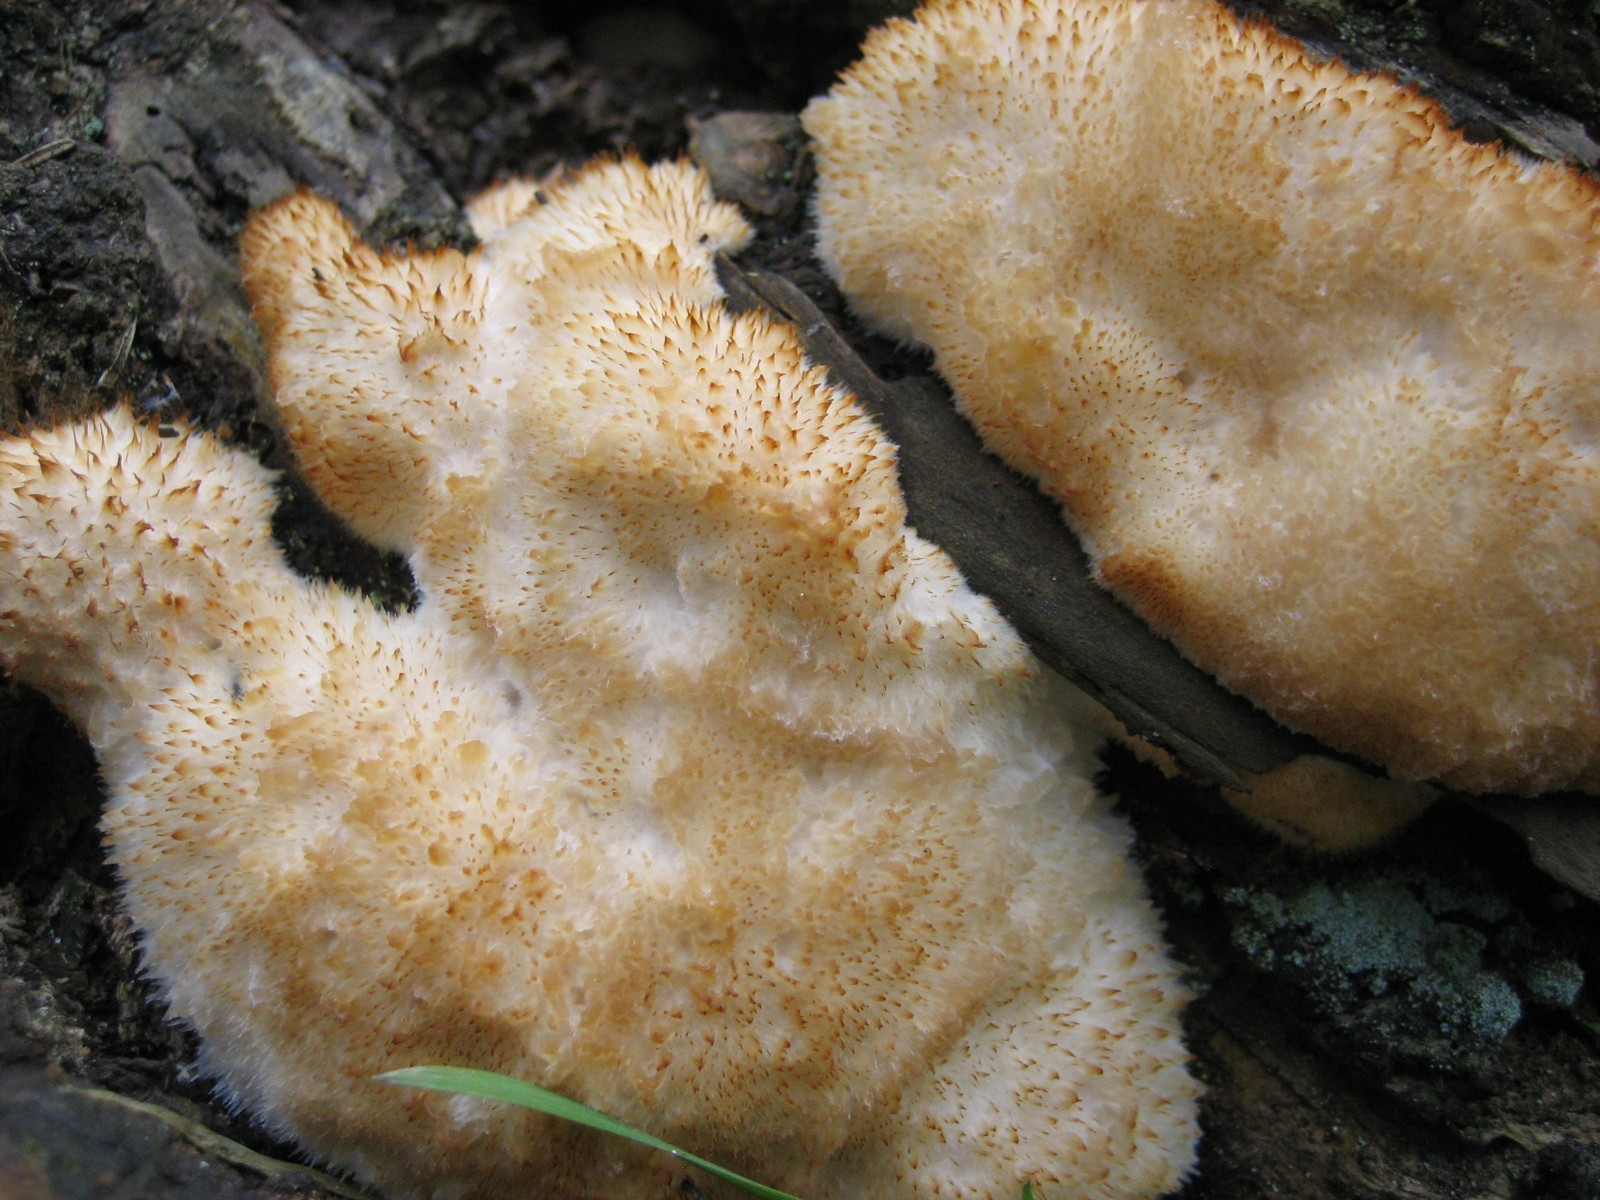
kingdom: Fungi
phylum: Basidiomycota
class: Agaricomycetes
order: Polyporales
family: Dacryobolaceae
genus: Postia
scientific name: Postia ptychogaster
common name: støvende kødporesvamp
